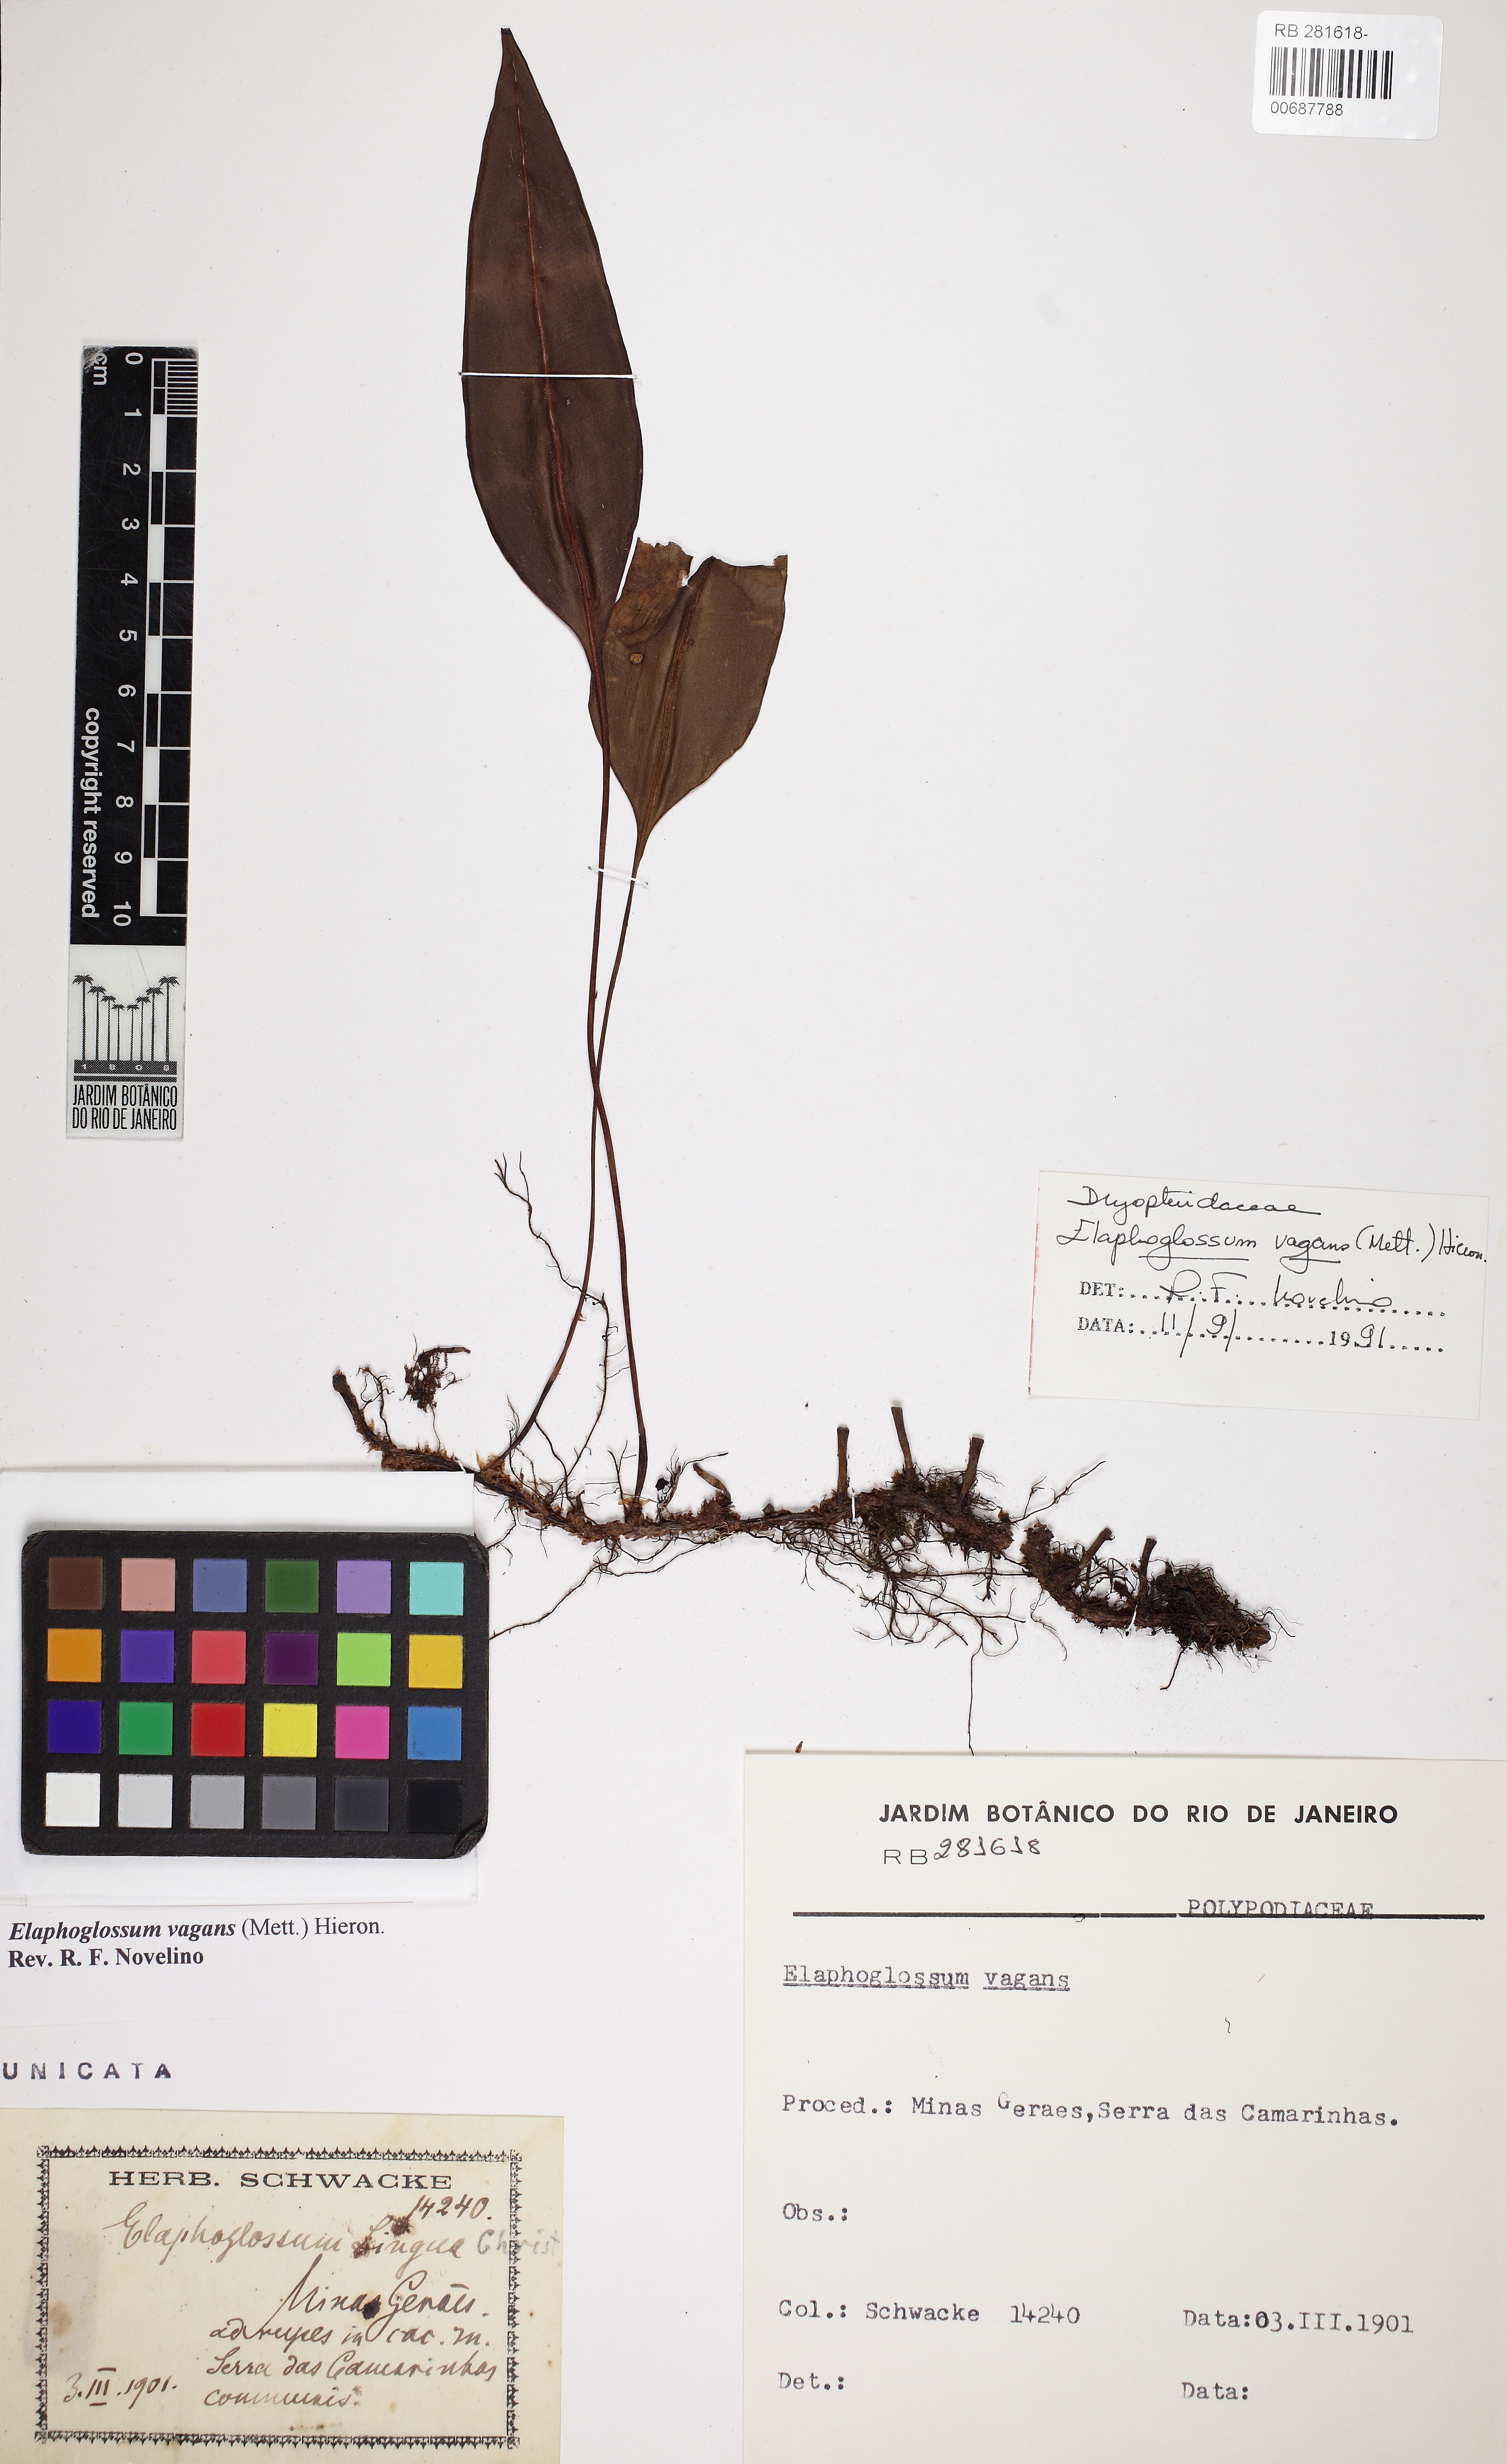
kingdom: Plantae
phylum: Tracheophyta
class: Polypodiopsida
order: Polypodiales
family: Dryopteridaceae
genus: Elaphoglossum
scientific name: Elaphoglossum vagans
